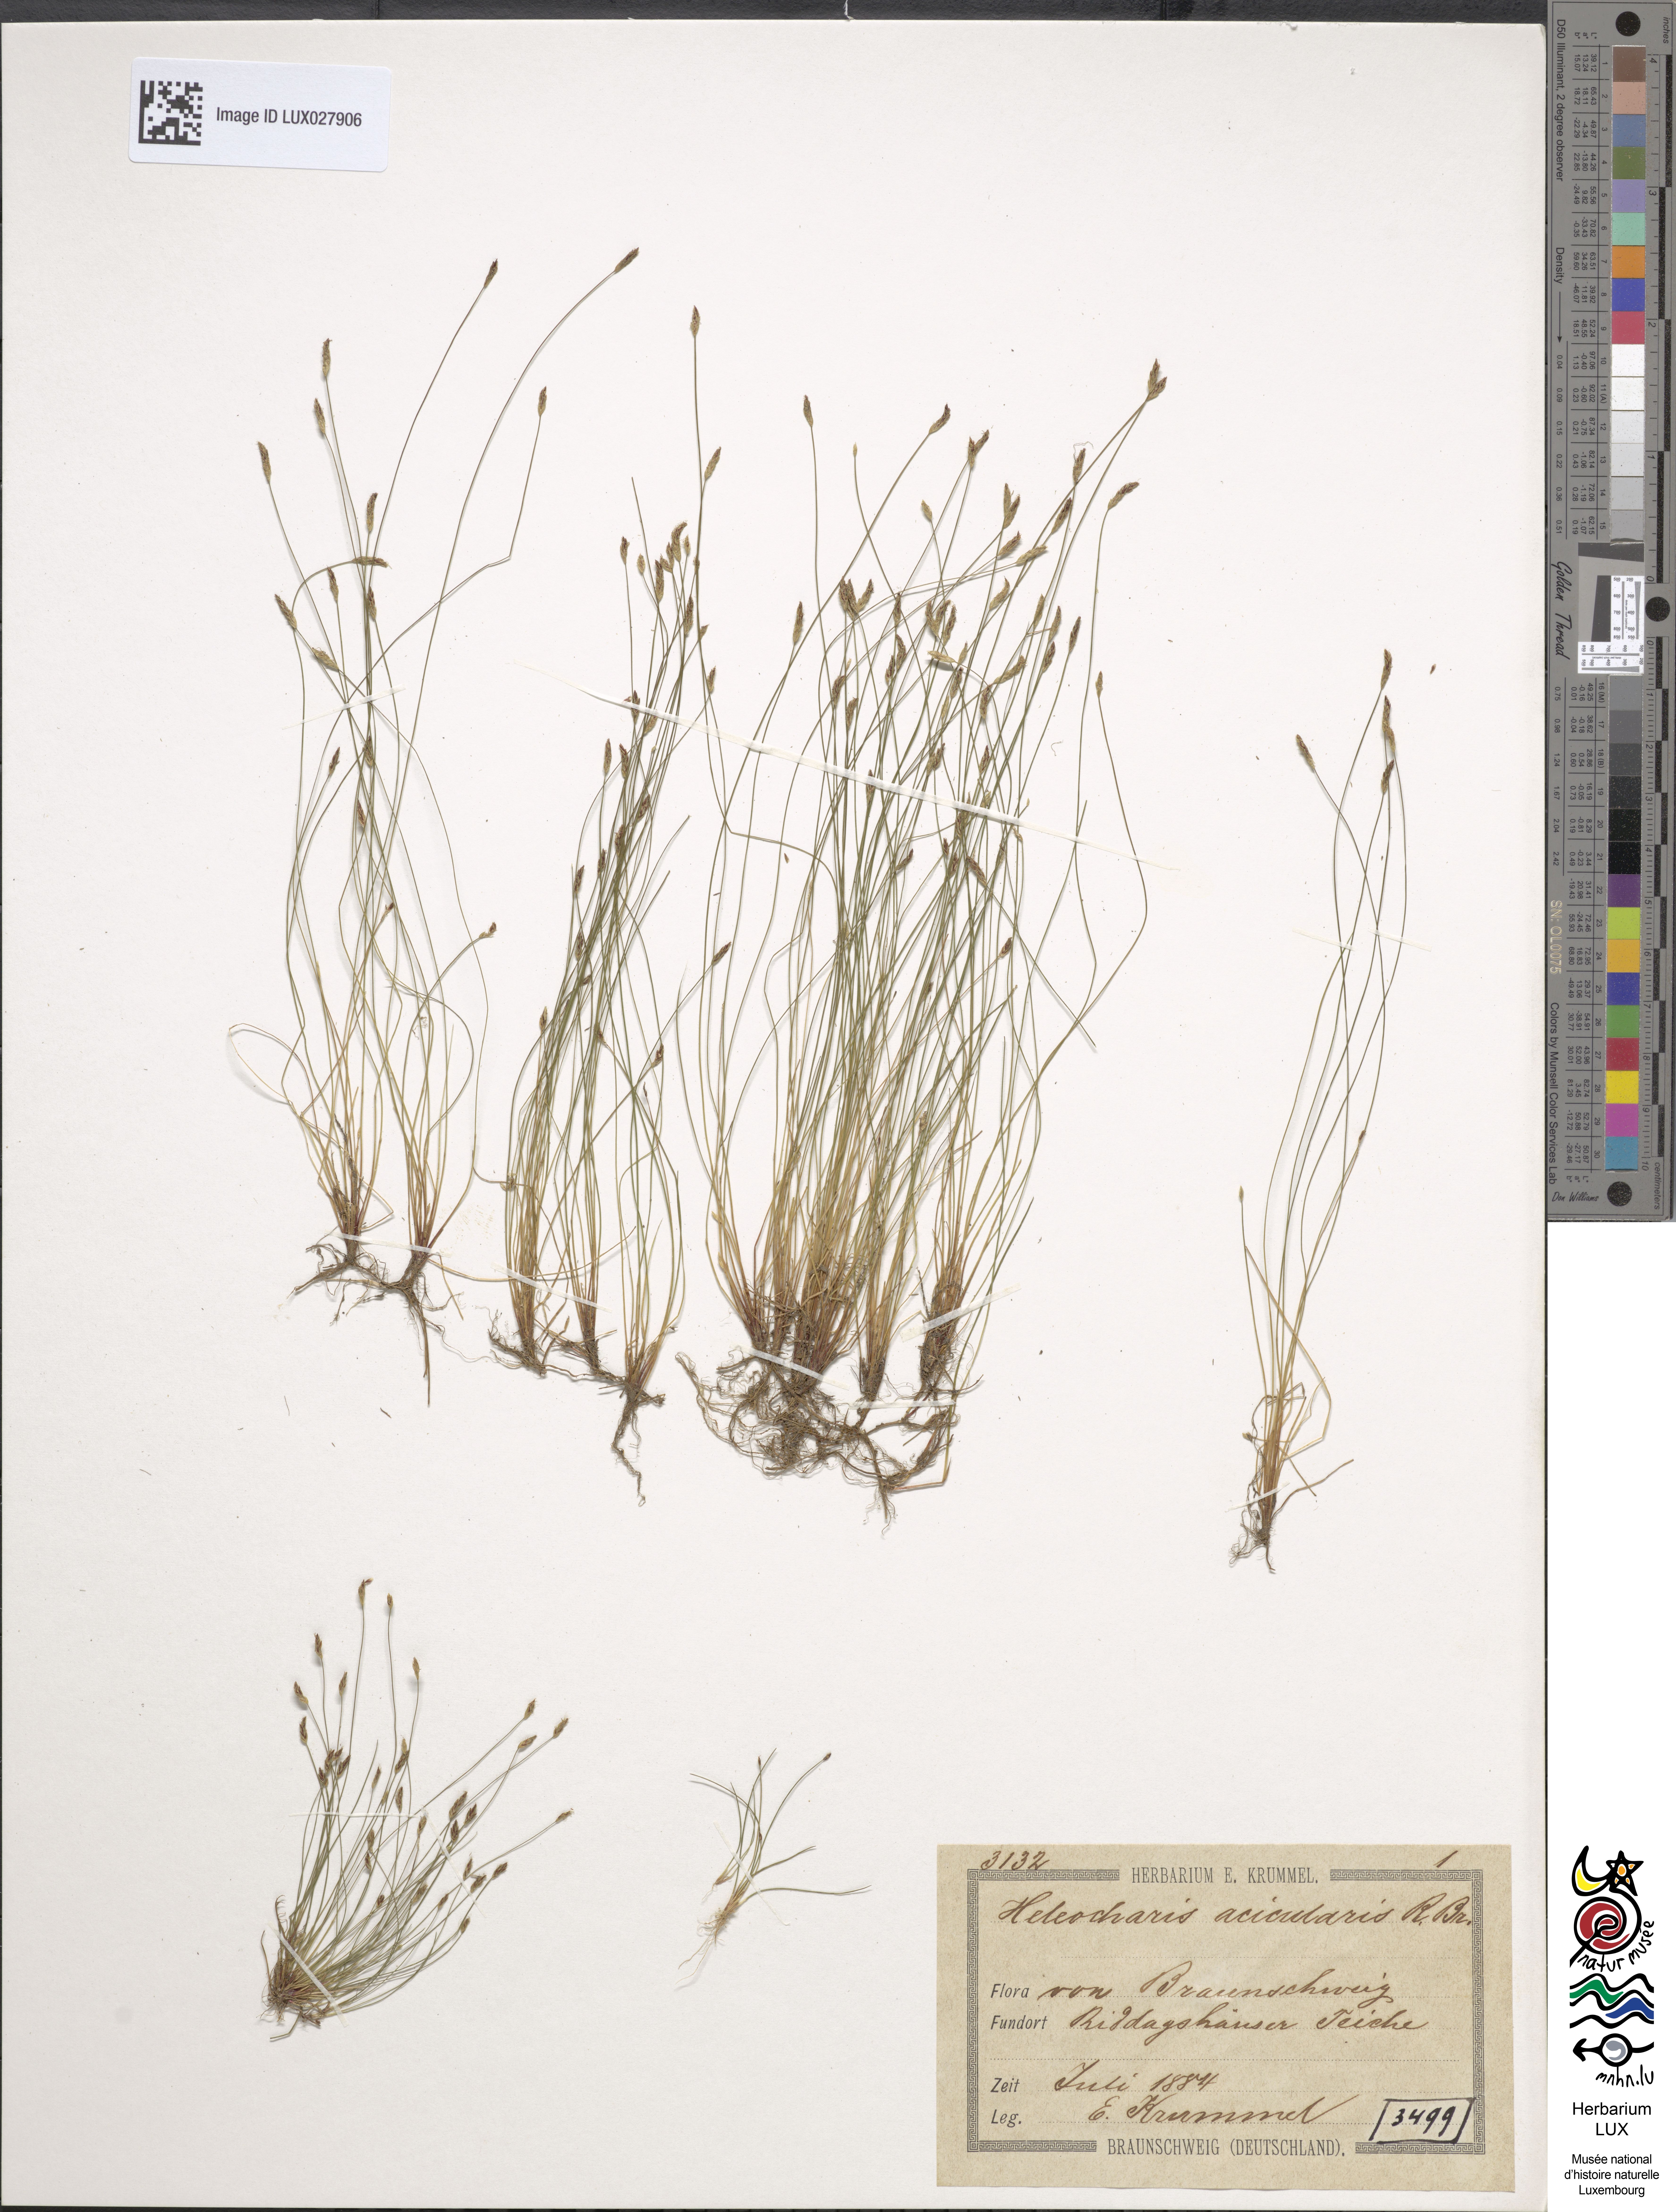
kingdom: Plantae
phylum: Tracheophyta
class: Liliopsida
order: Poales
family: Cyperaceae
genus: Eleocharis
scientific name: Eleocharis acicularis
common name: Needle spike-rush
